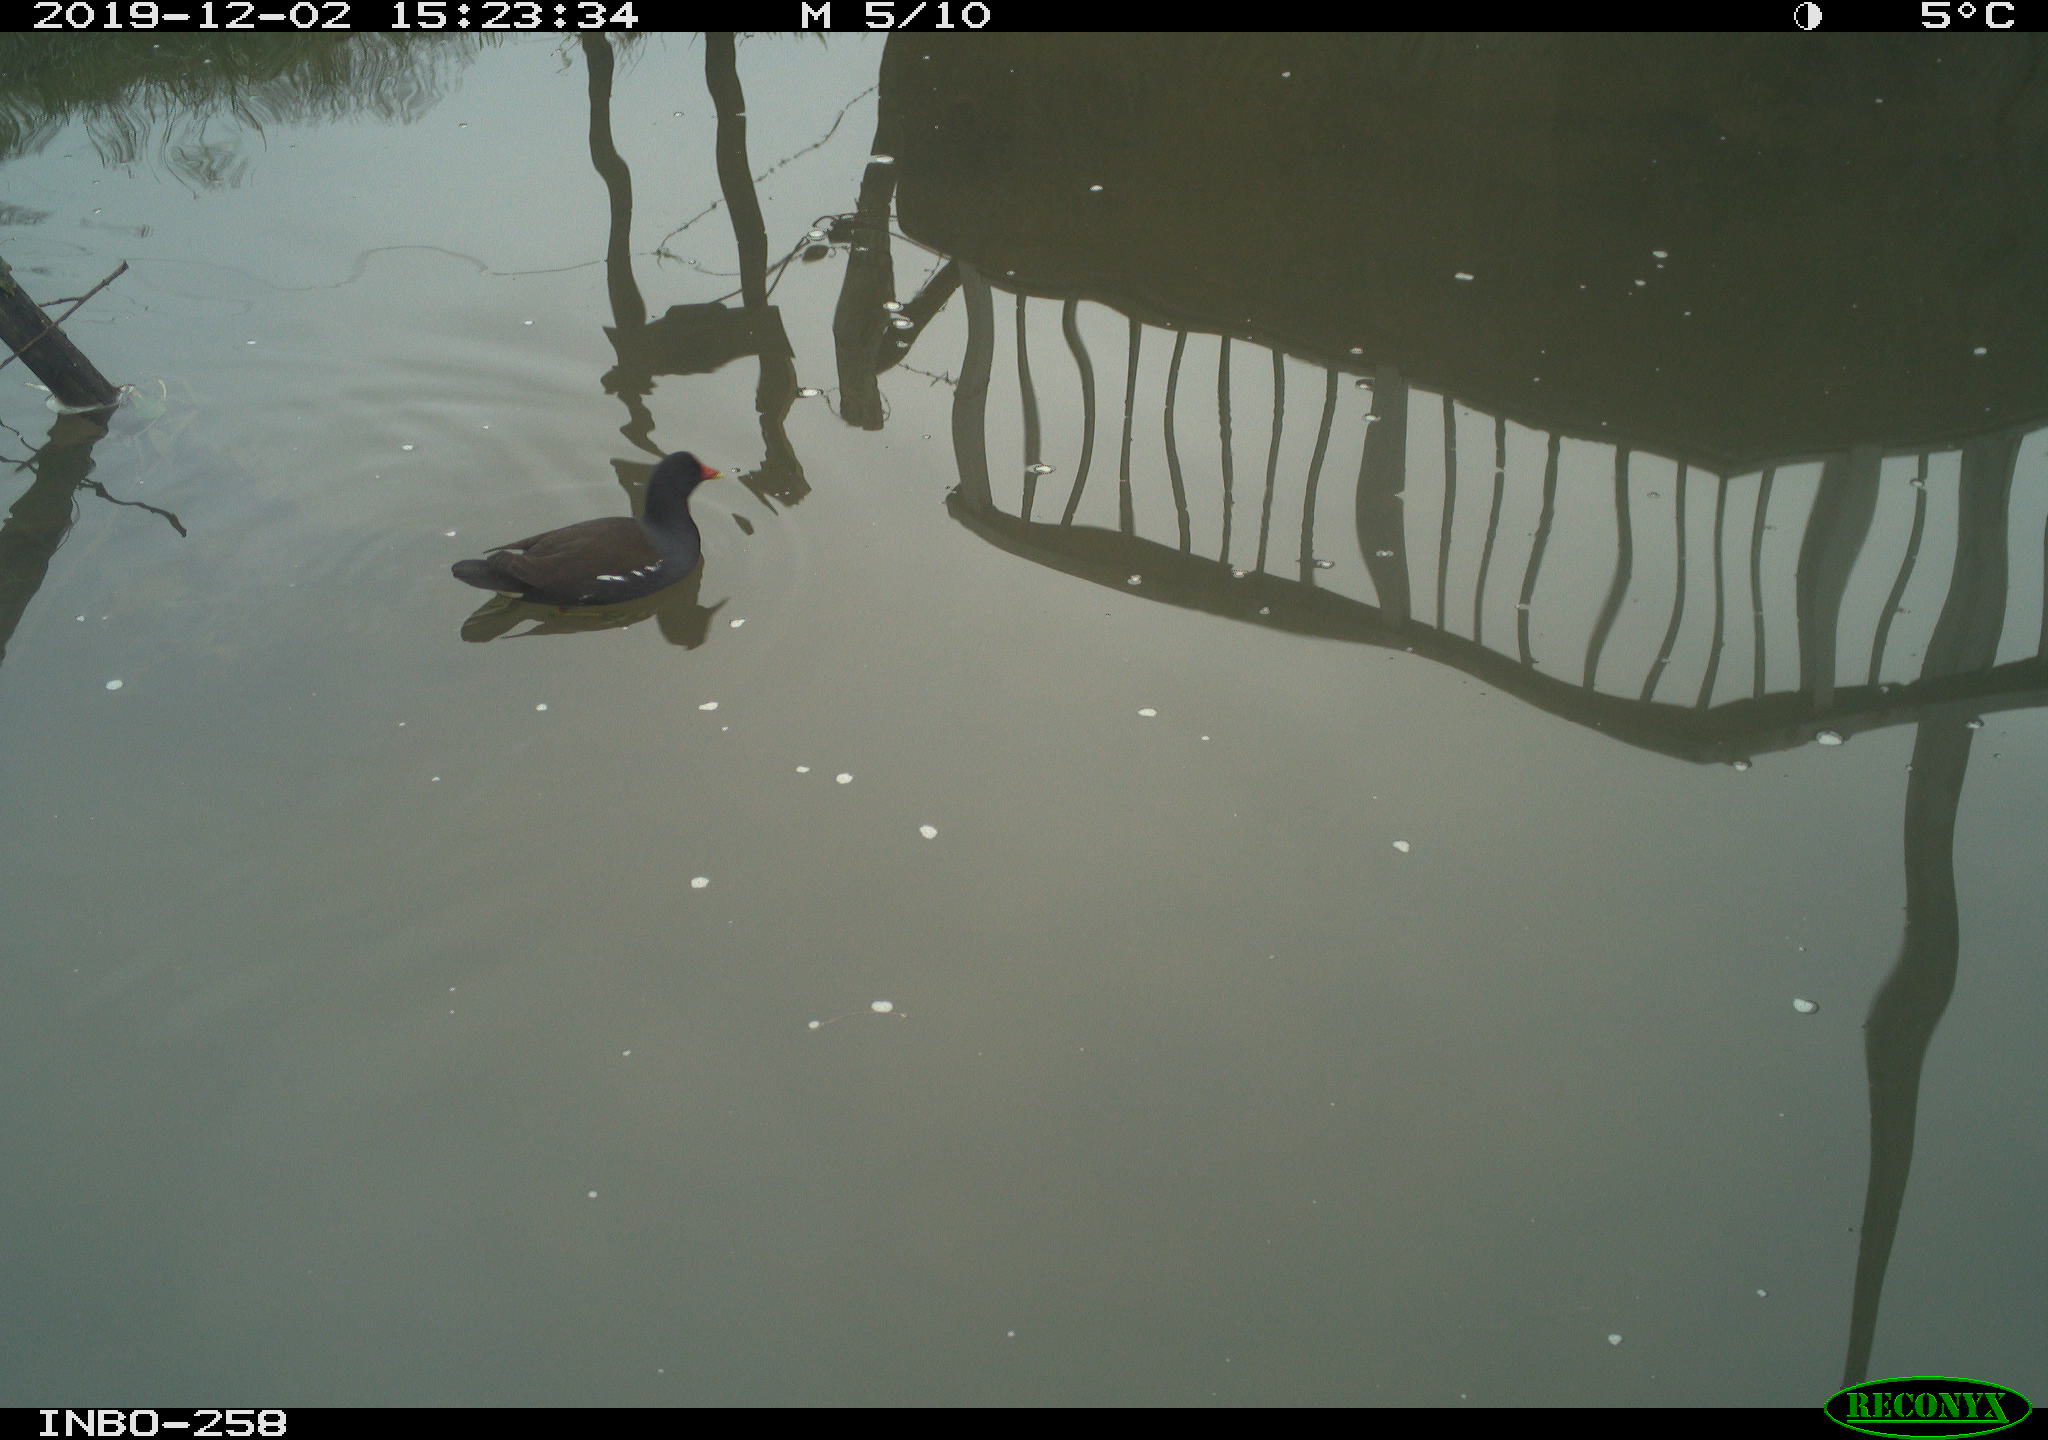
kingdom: Animalia
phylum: Chordata
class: Aves
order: Gruiformes
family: Rallidae
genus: Gallinula
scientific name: Gallinula chloropus
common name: Common moorhen
